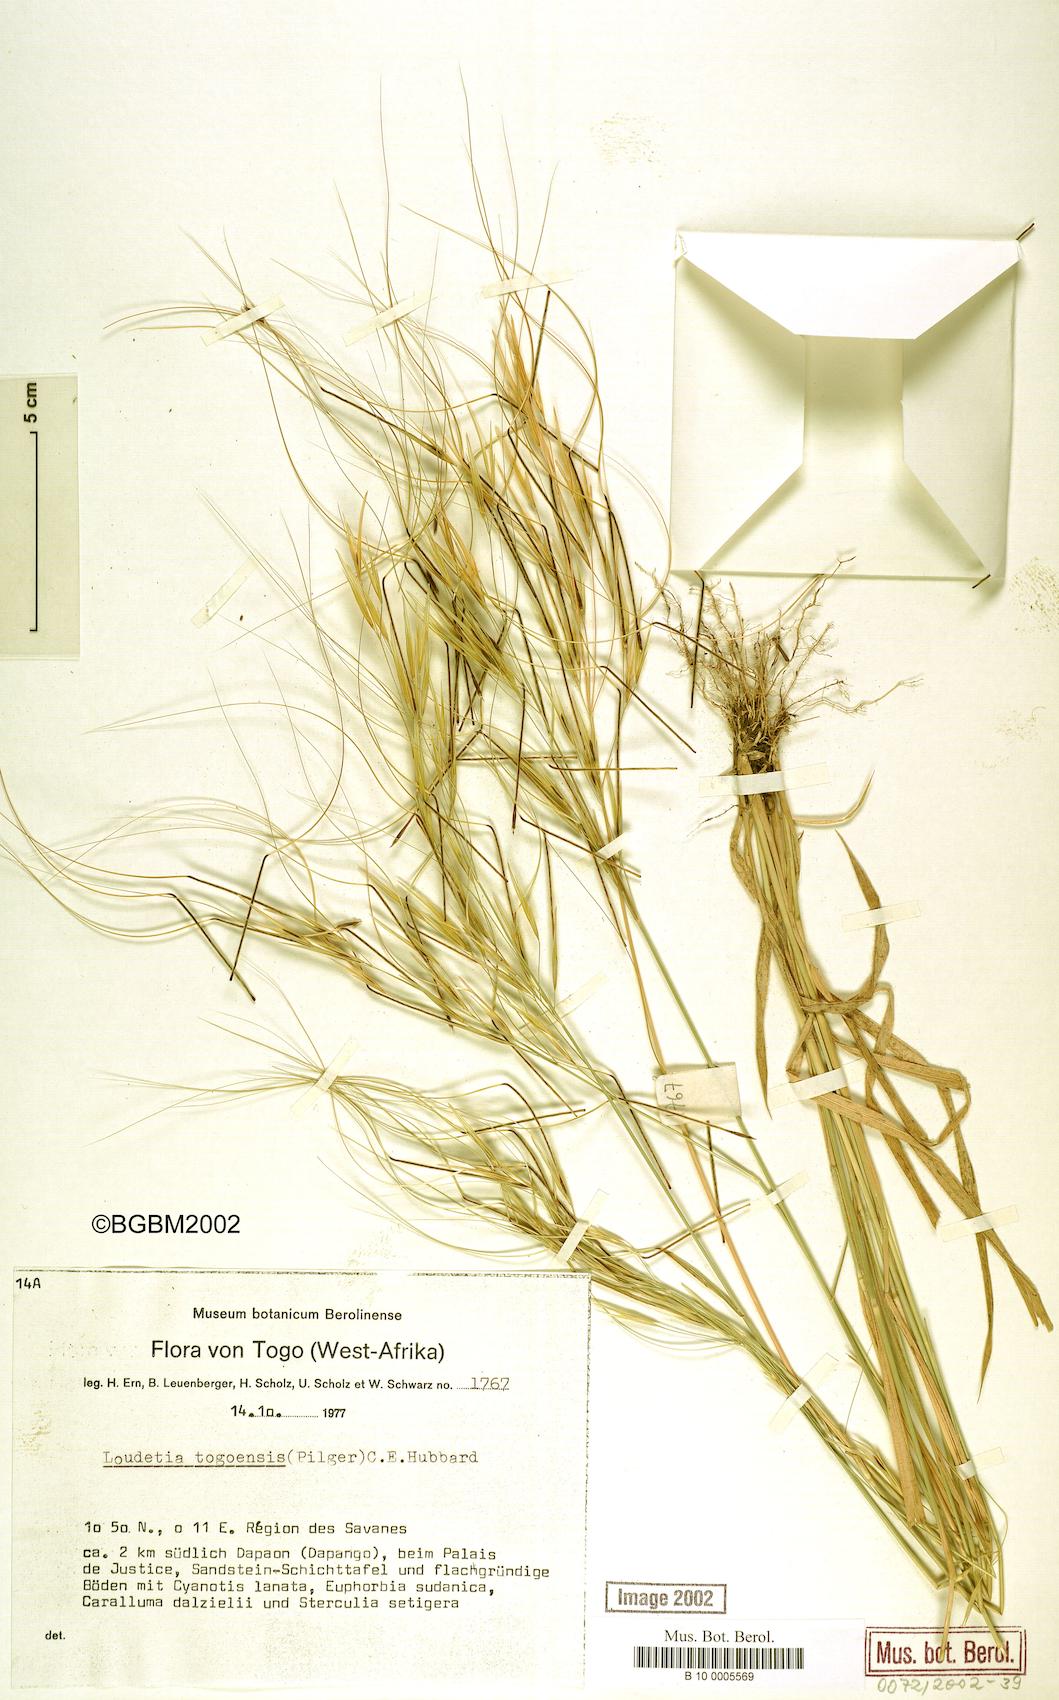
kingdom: Plantae
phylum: Tracheophyta
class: Liliopsida
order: Poales
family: Poaceae
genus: Loudetia
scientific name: Loudetia togoensis
